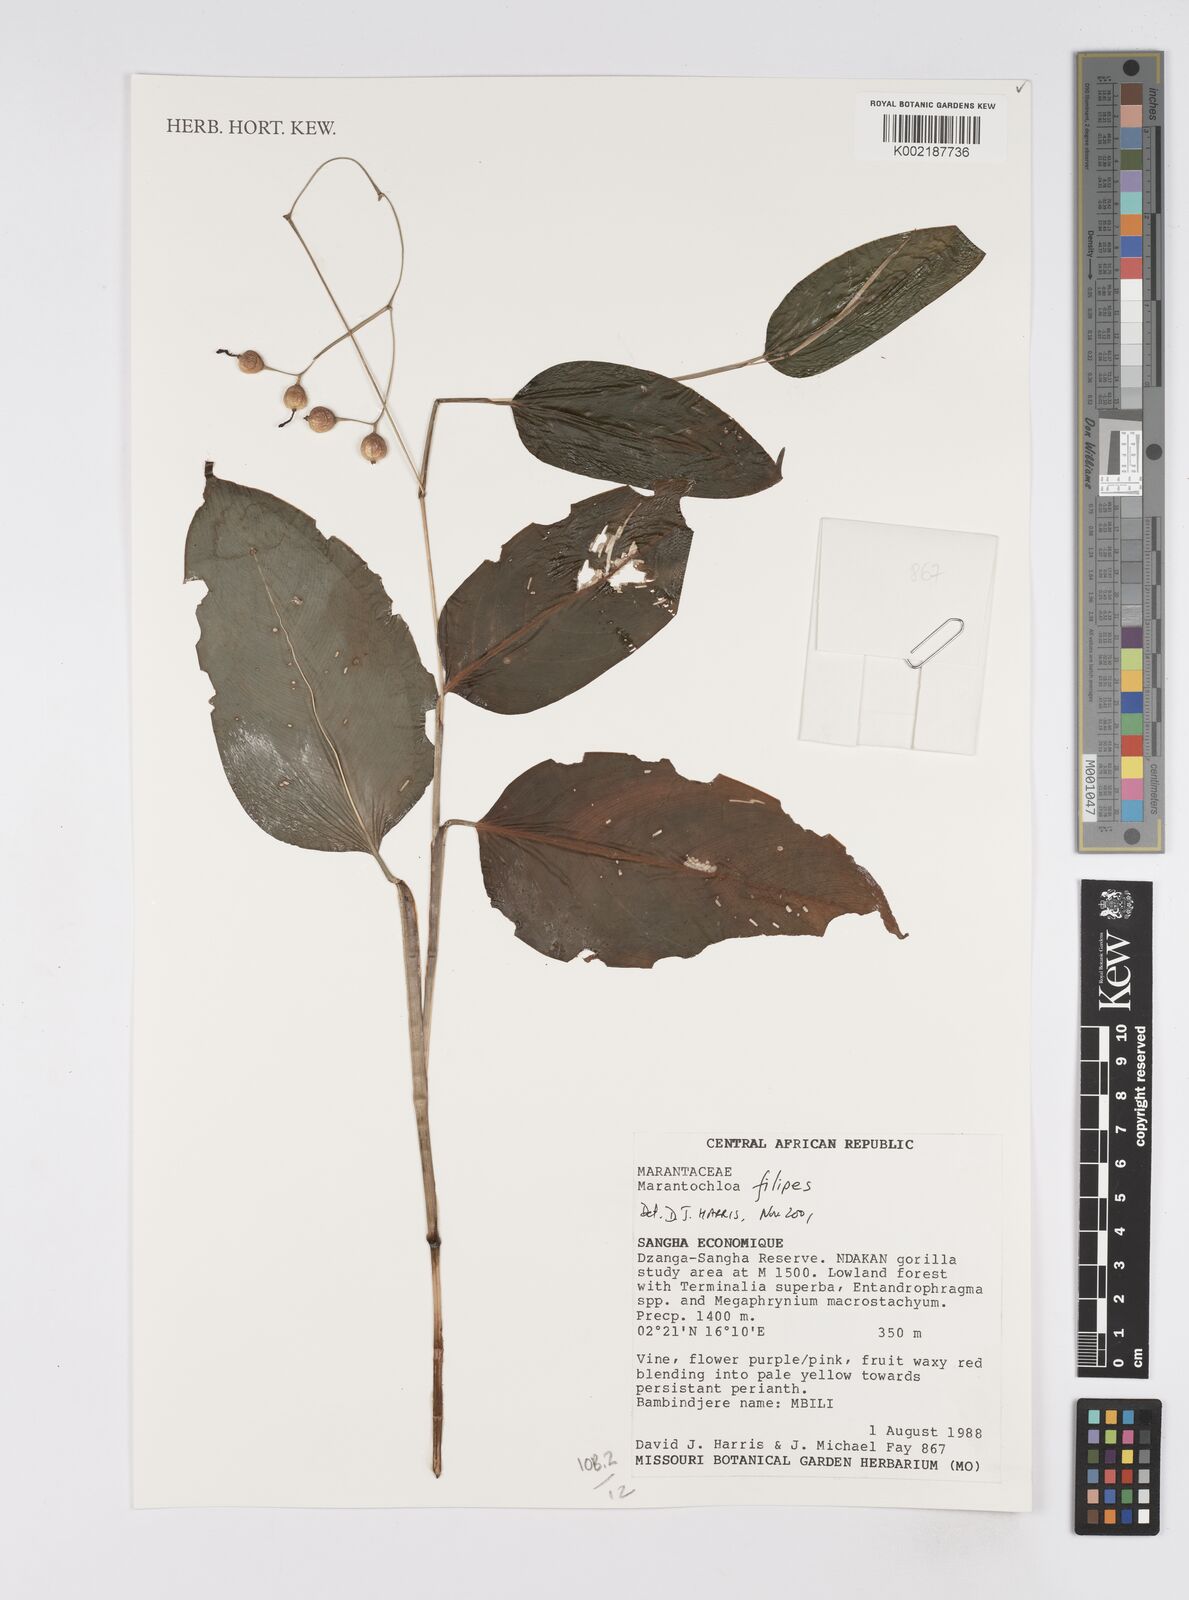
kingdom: Plantae
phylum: Tracheophyta
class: Liliopsida
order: Zingiberales
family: Marantaceae
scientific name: Marantaceae
